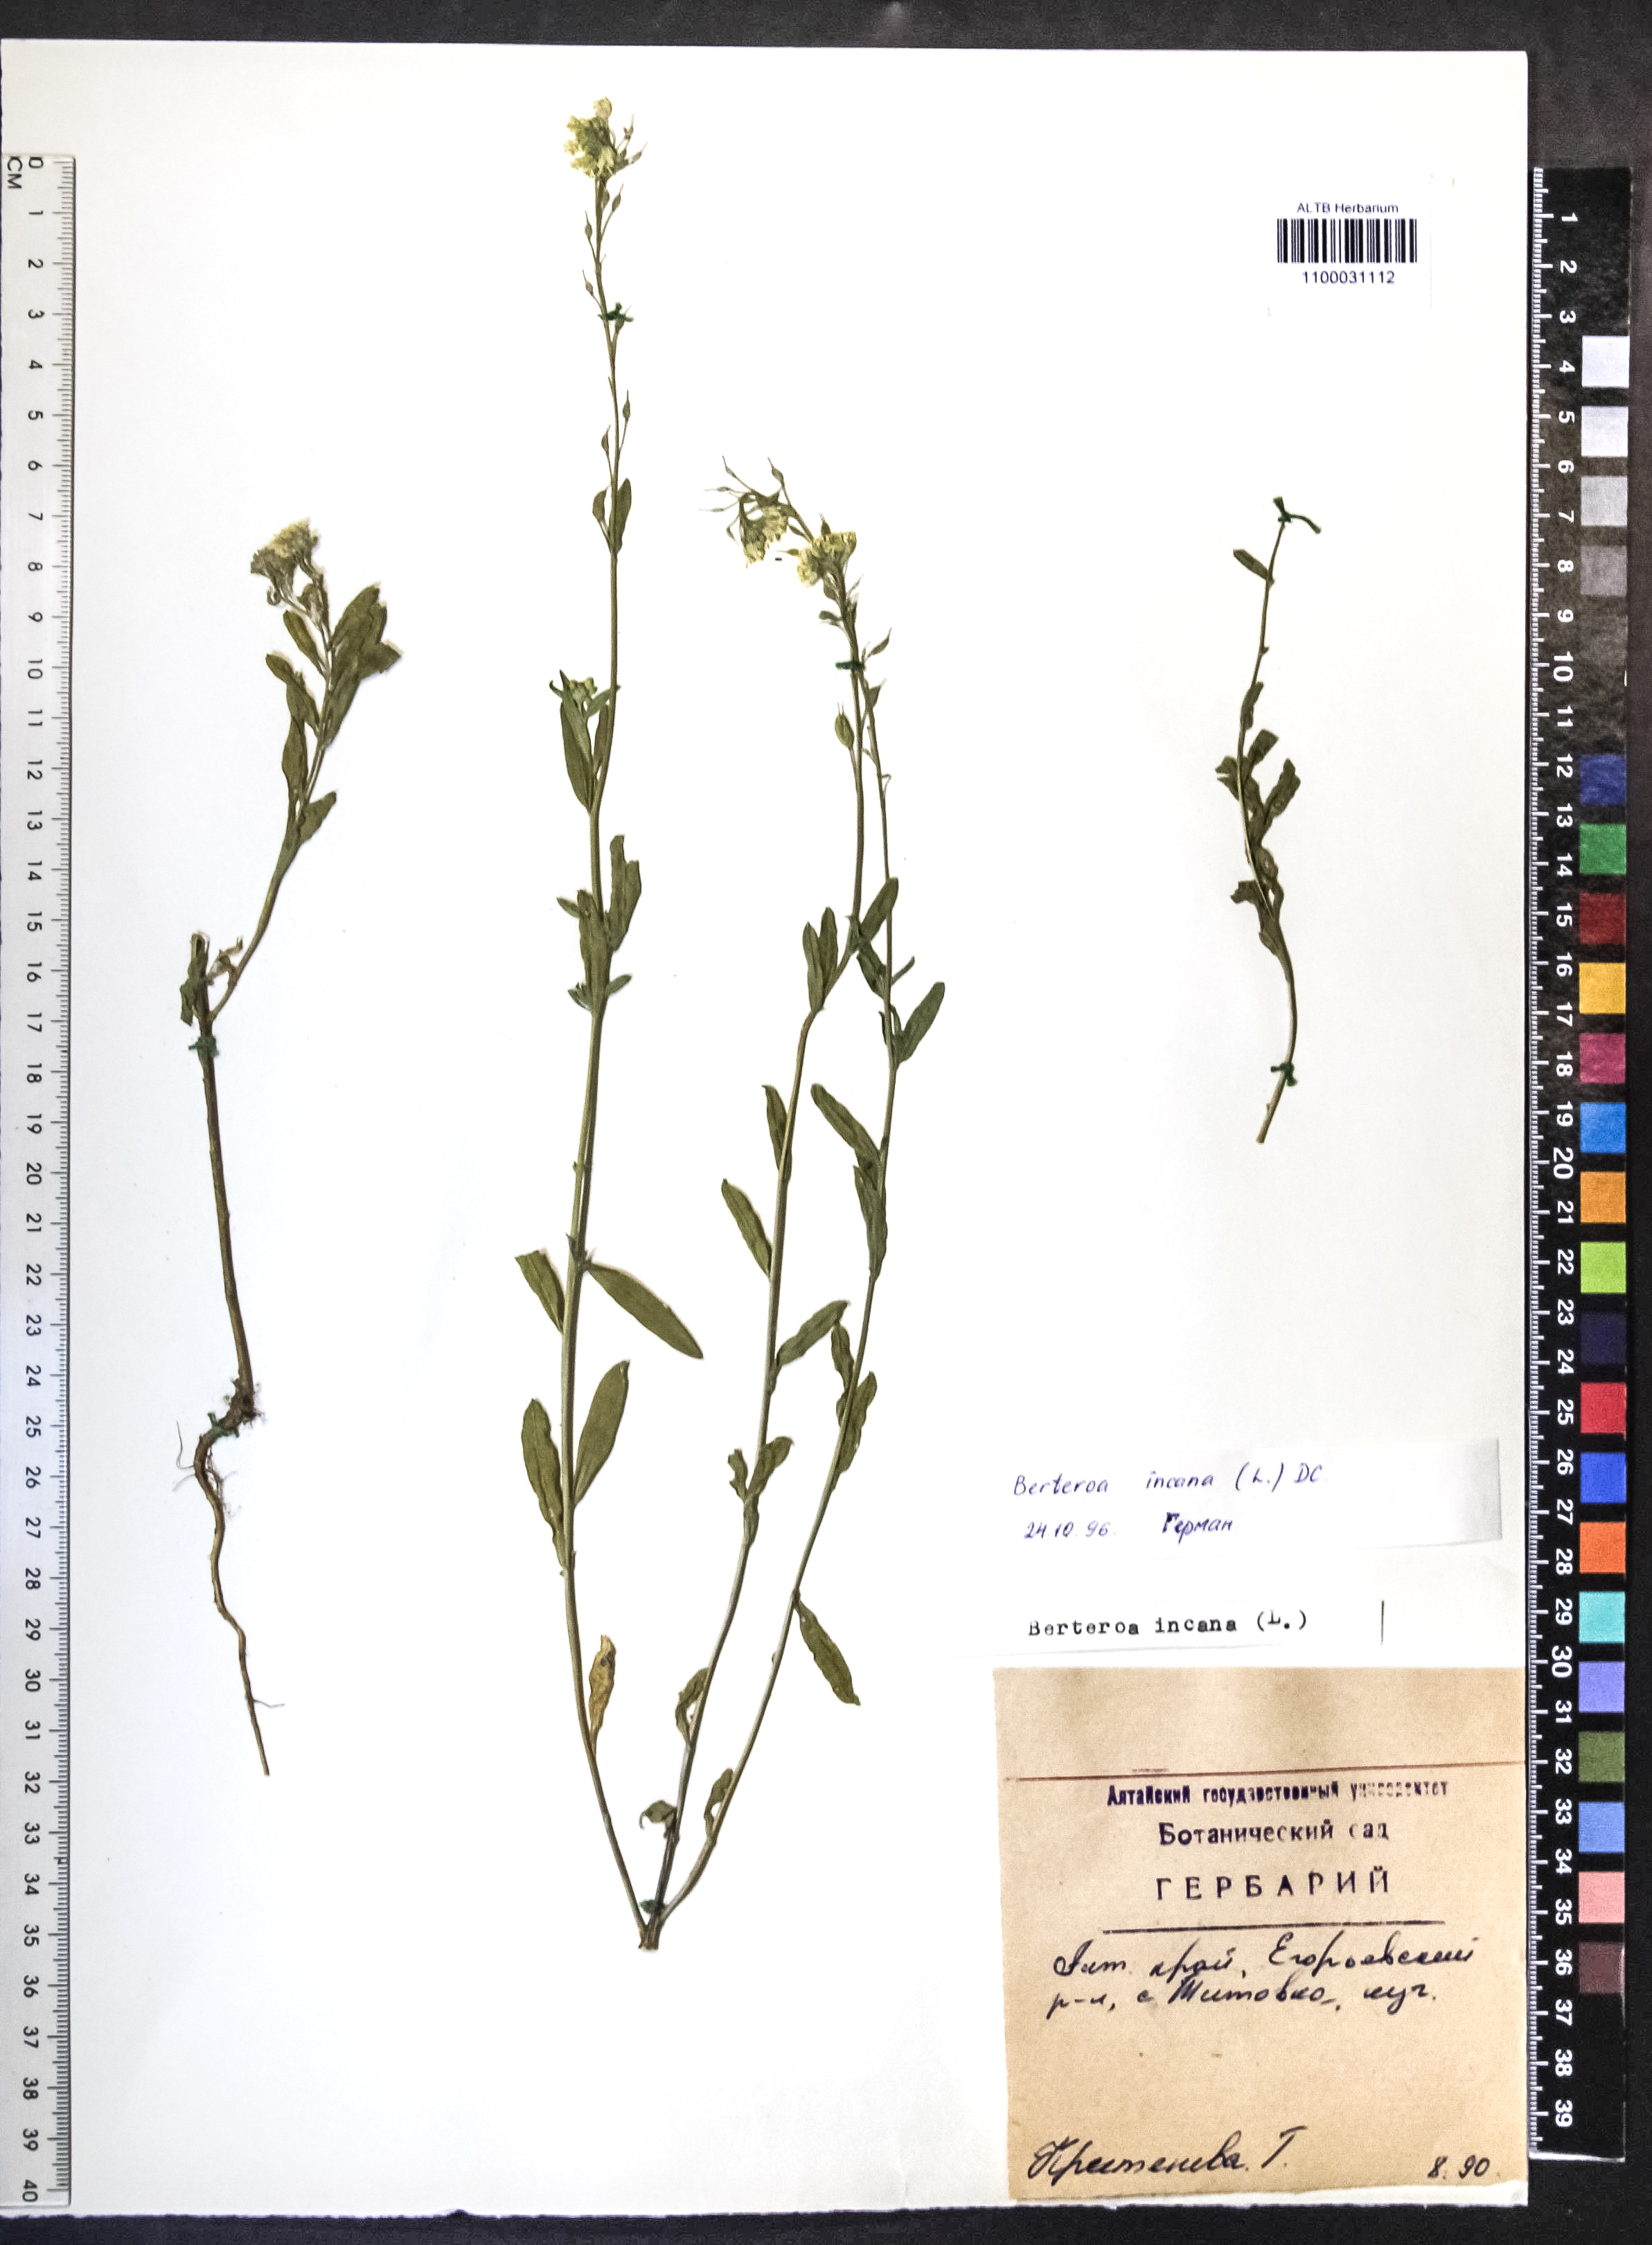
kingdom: Plantae
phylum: Tracheophyta
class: Magnoliopsida
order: Brassicales
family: Brassicaceae
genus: Berteroa
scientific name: Berteroa incana
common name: Hoary alison
